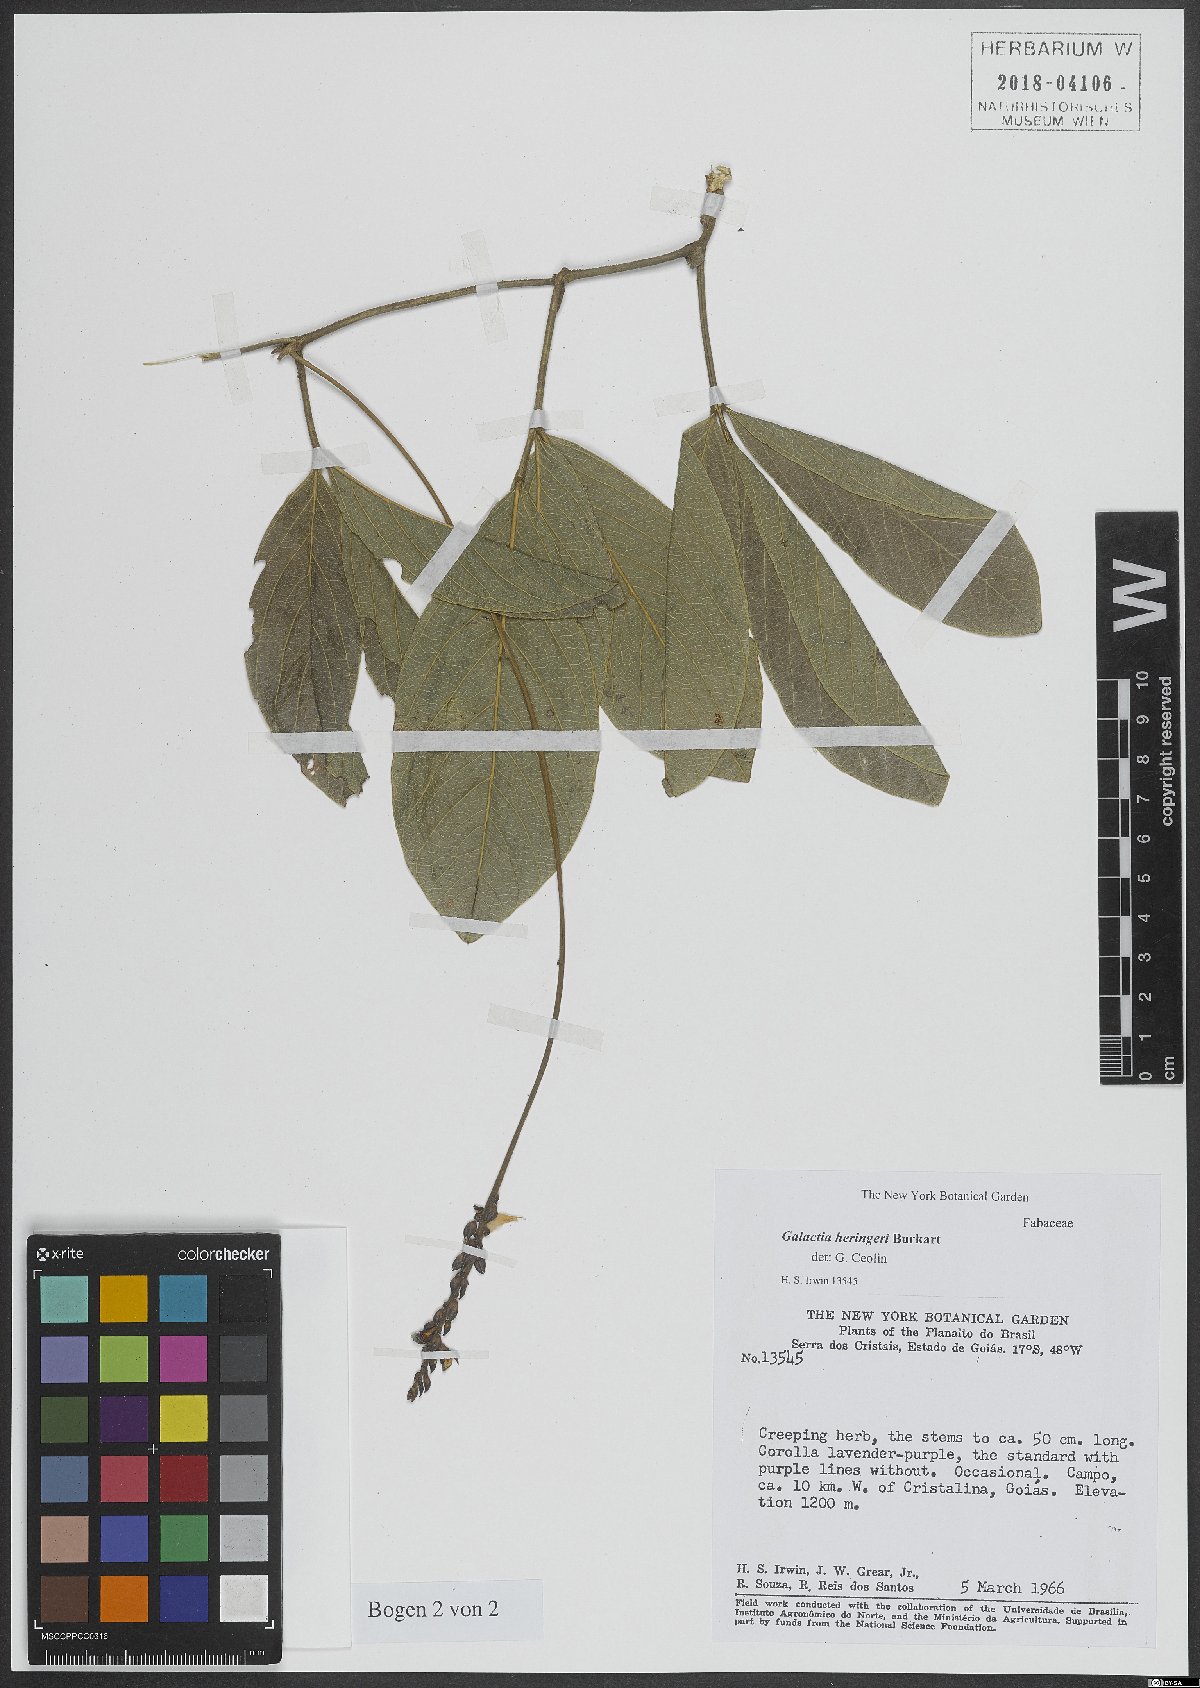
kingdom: Plantae
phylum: Tracheophyta
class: Magnoliopsida
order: Fabales
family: Fabaceae
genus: Galactia
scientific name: Galactia
